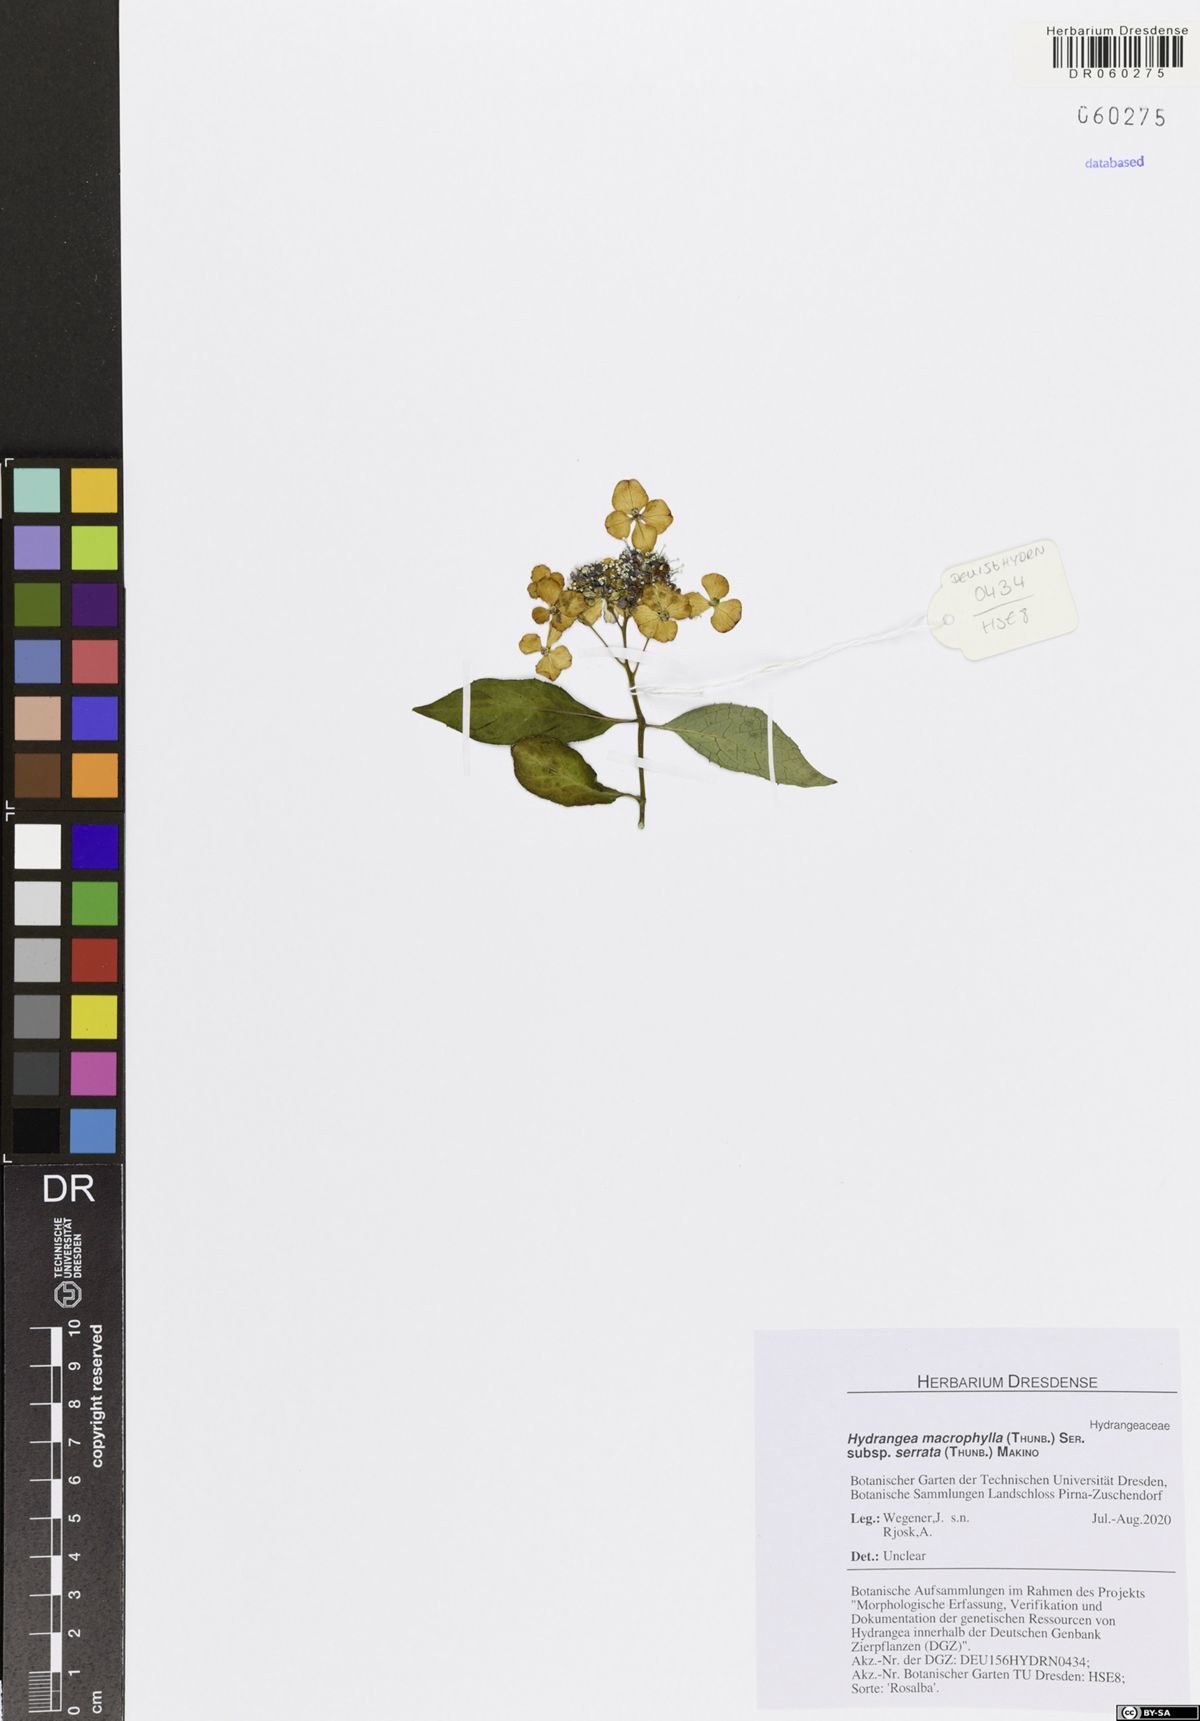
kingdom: Plantae
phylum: Tracheophyta
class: Magnoliopsida
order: Cornales
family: Hydrangeaceae
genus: Hydrangea
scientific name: Hydrangea serrata
